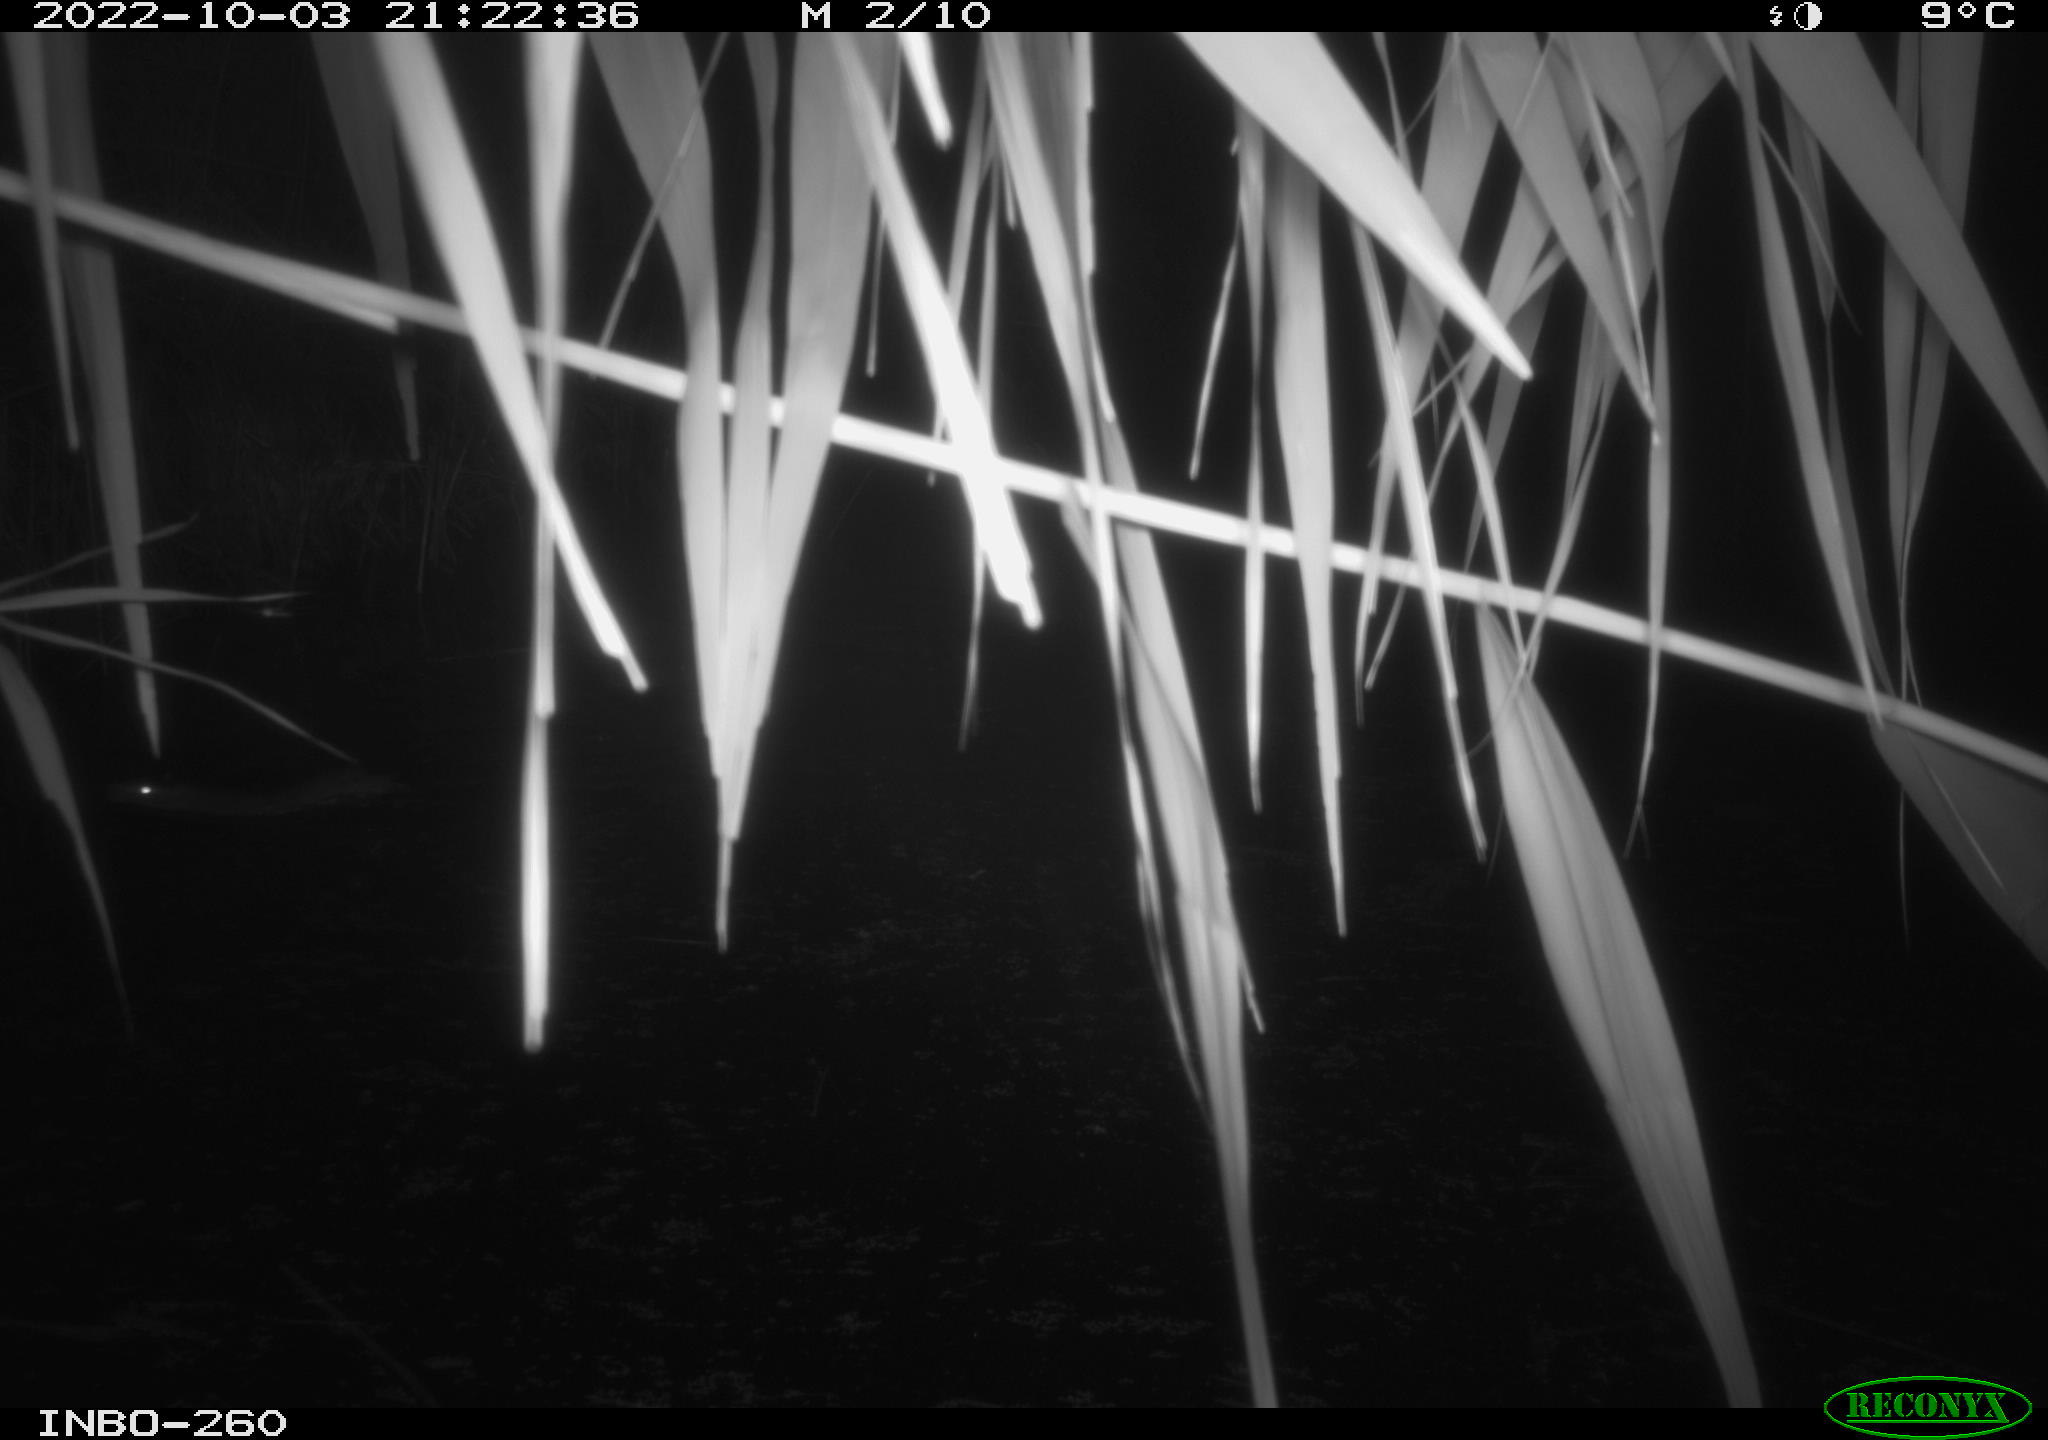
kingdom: Animalia
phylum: Chordata
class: Mammalia
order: Rodentia
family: Muridae
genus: Rattus
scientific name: Rattus norvegicus
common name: Brown rat
